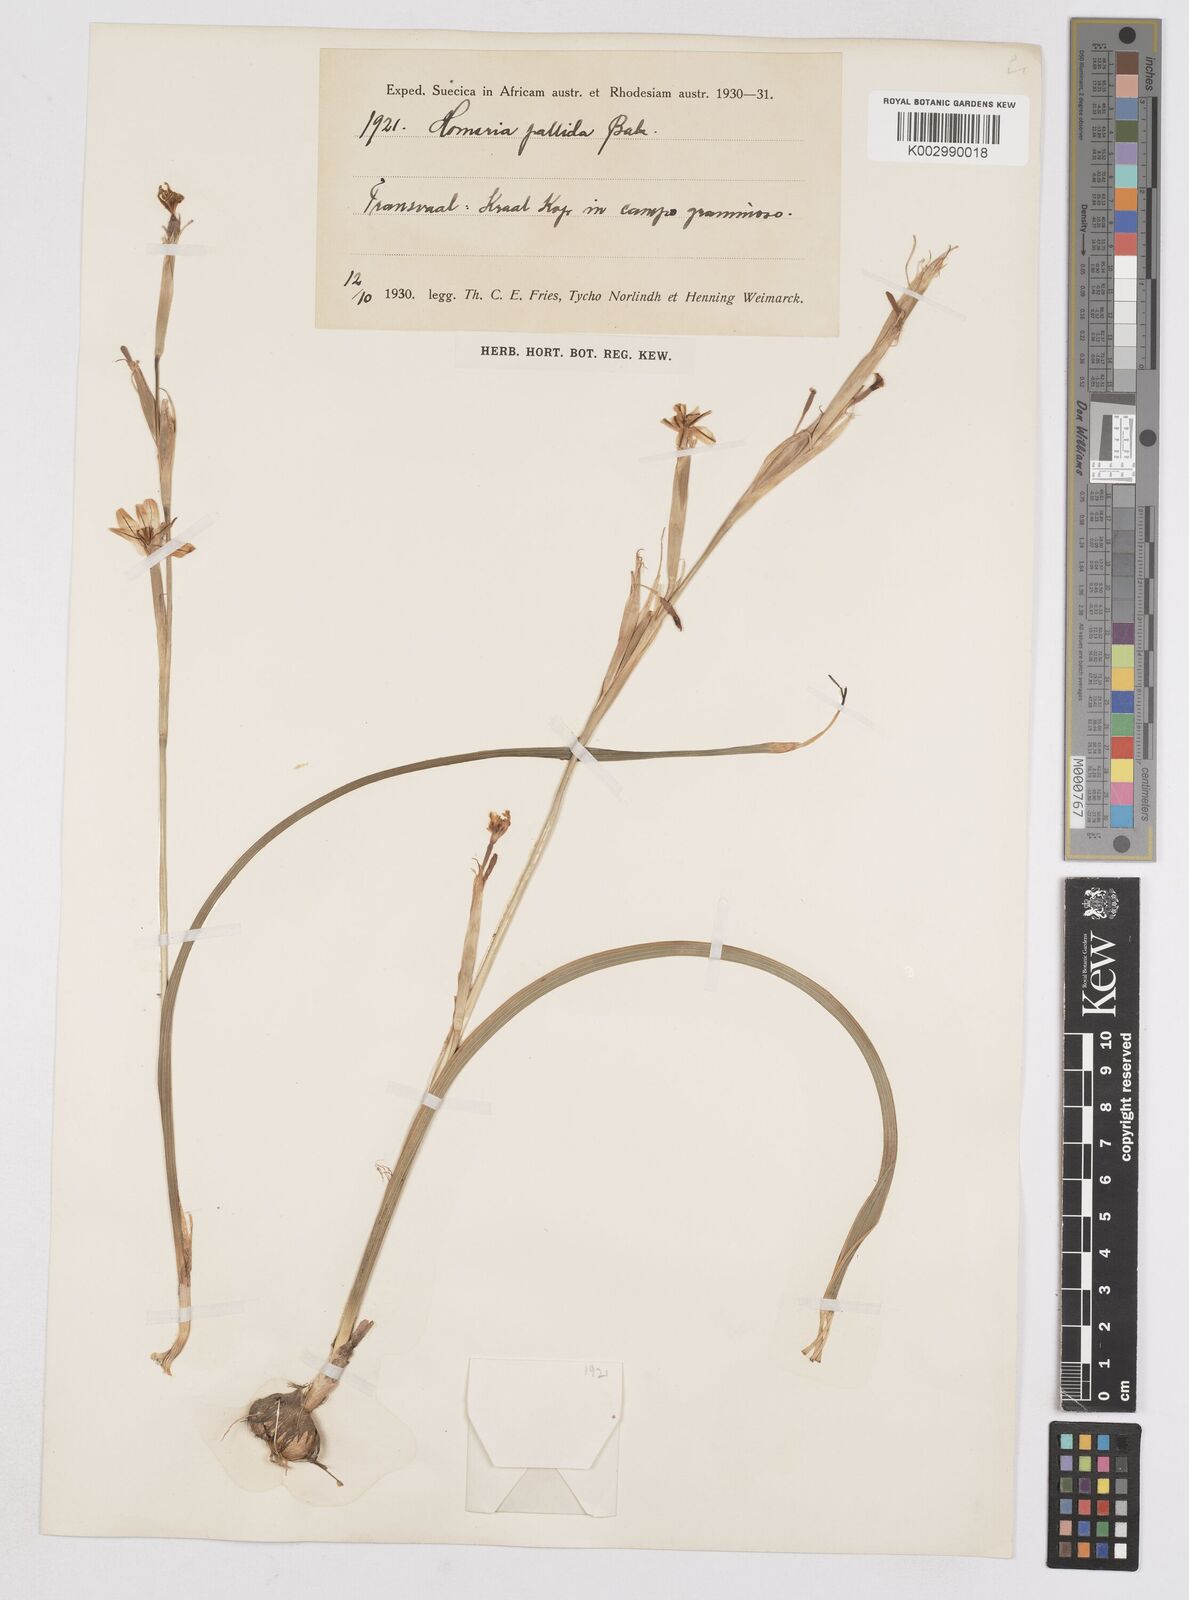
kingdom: Plantae
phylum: Tracheophyta
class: Liliopsida
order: Asparagales
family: Iridaceae
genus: Moraea
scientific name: Moraea pallida
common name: Yellow tulp
